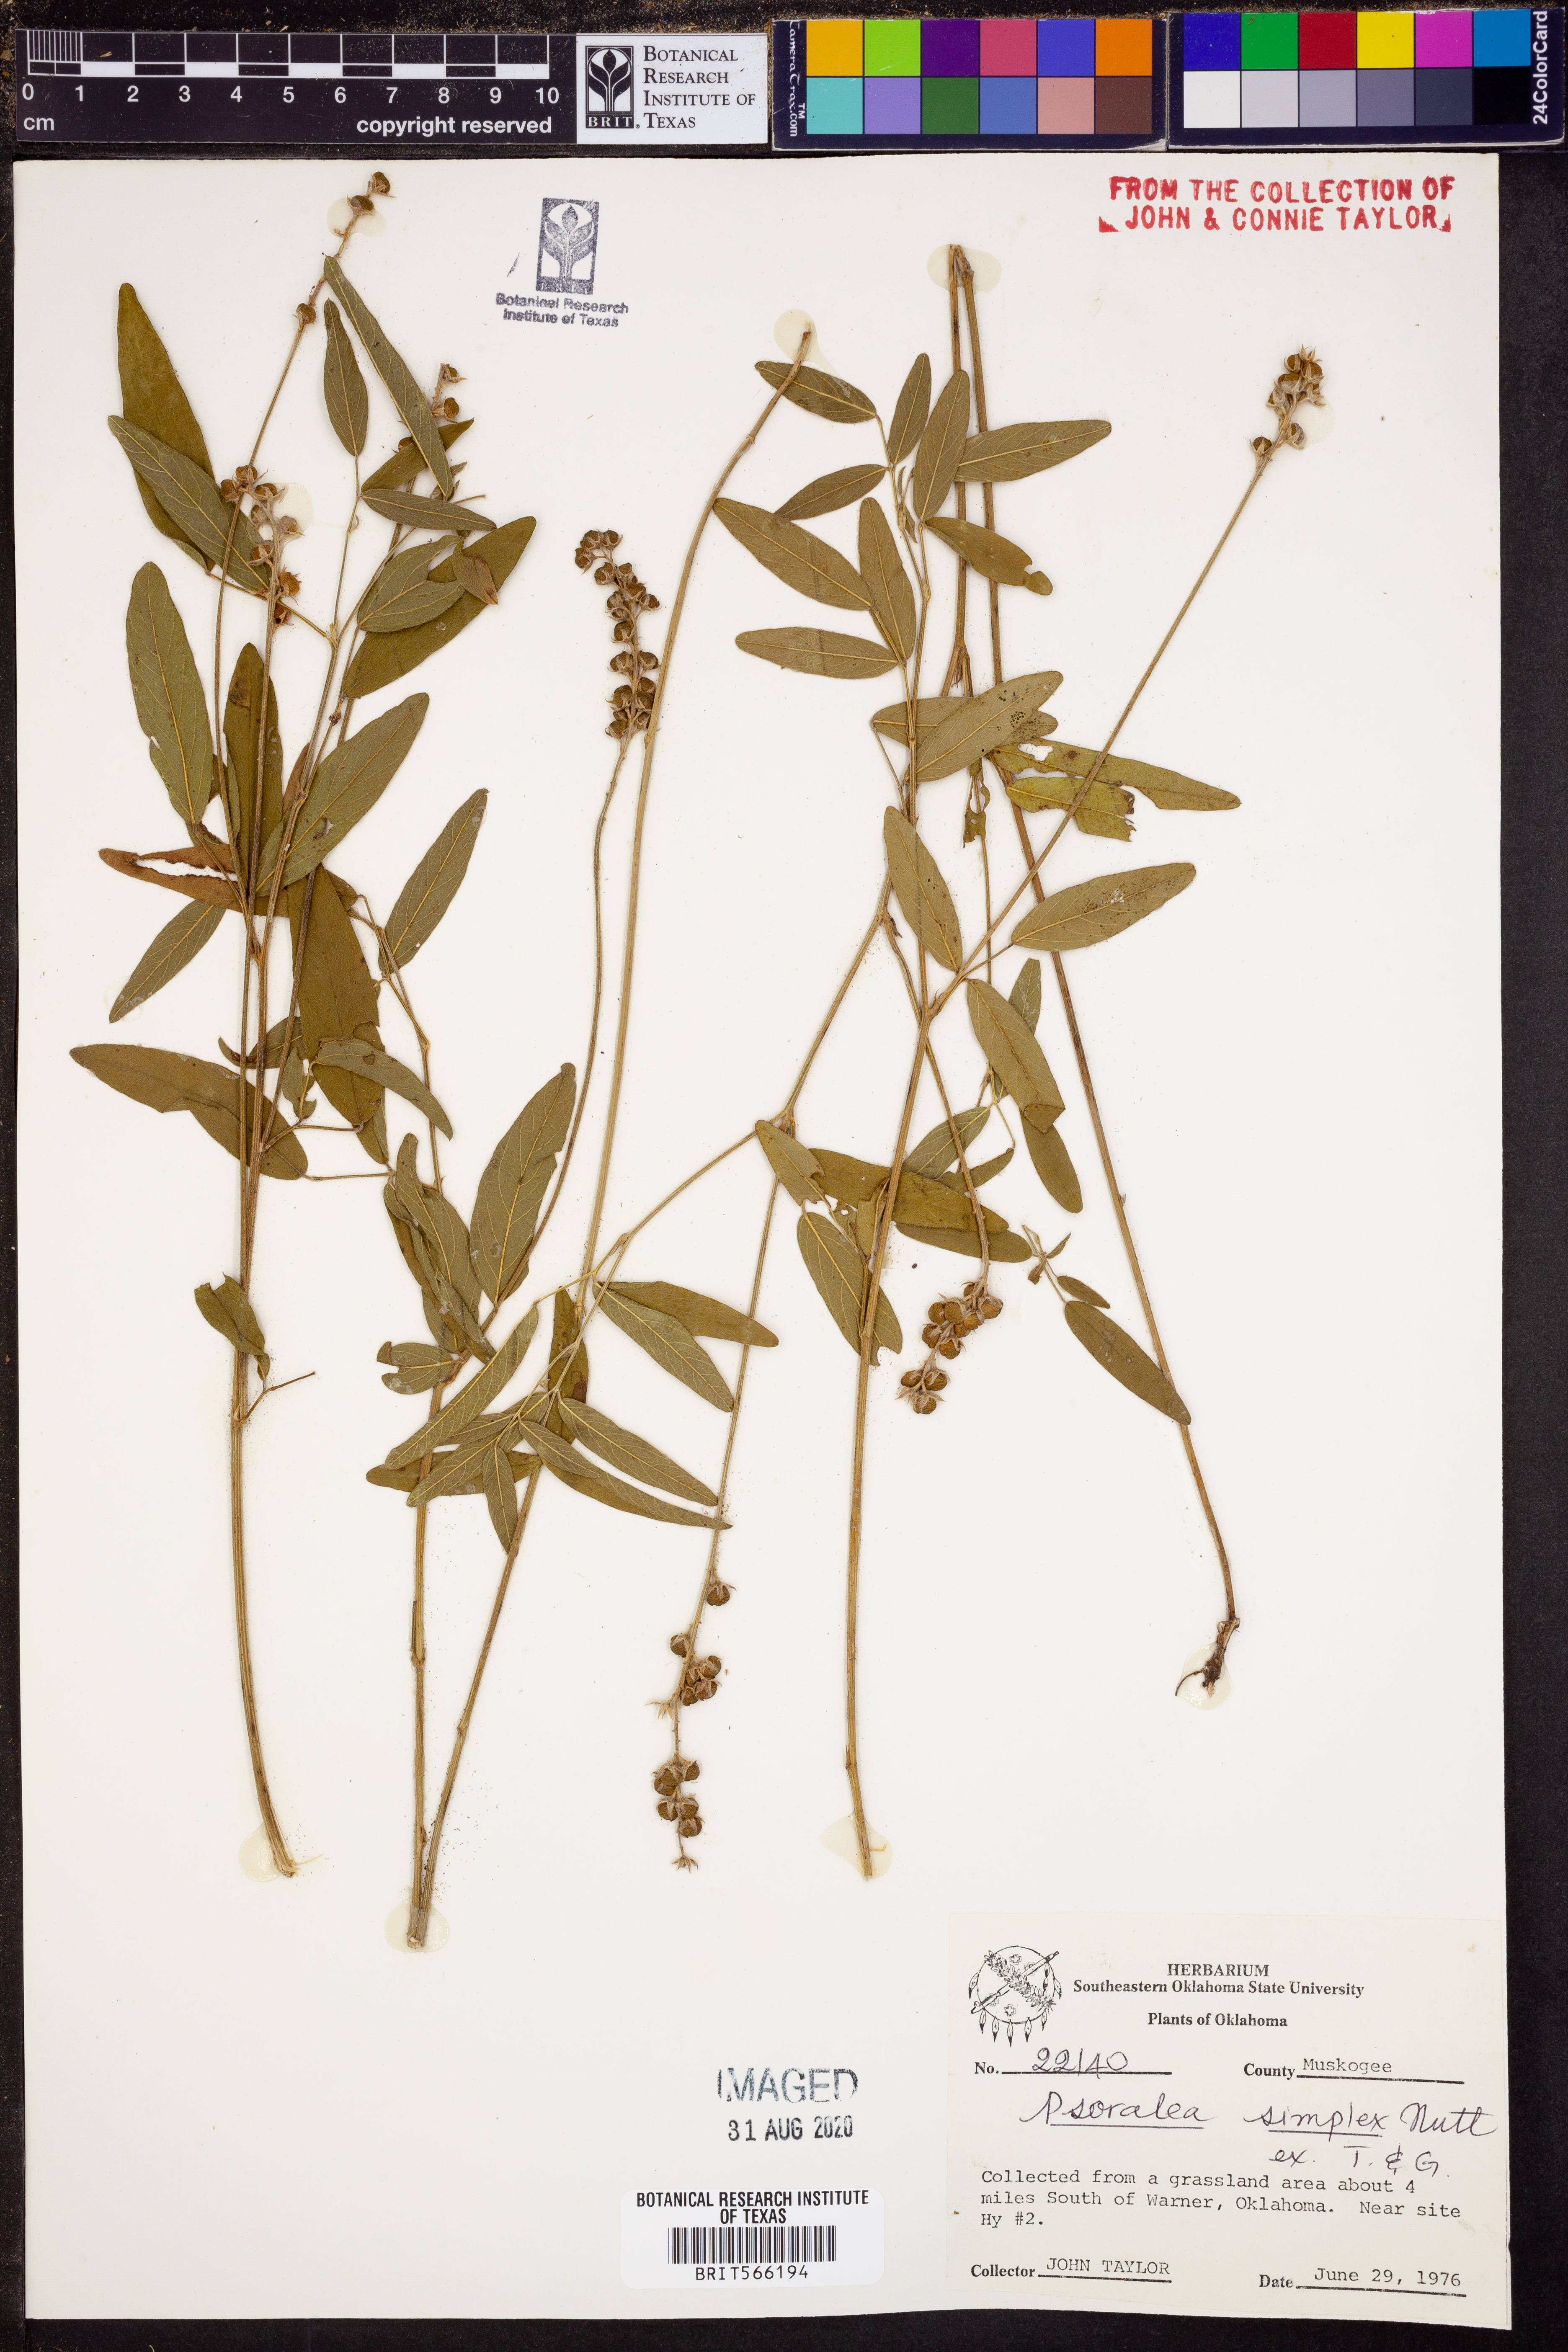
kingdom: Plantae
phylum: Tracheophyta
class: Magnoliopsida
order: Fabales
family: Fabaceae
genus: Orbexilum
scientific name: Orbexilum simplex
